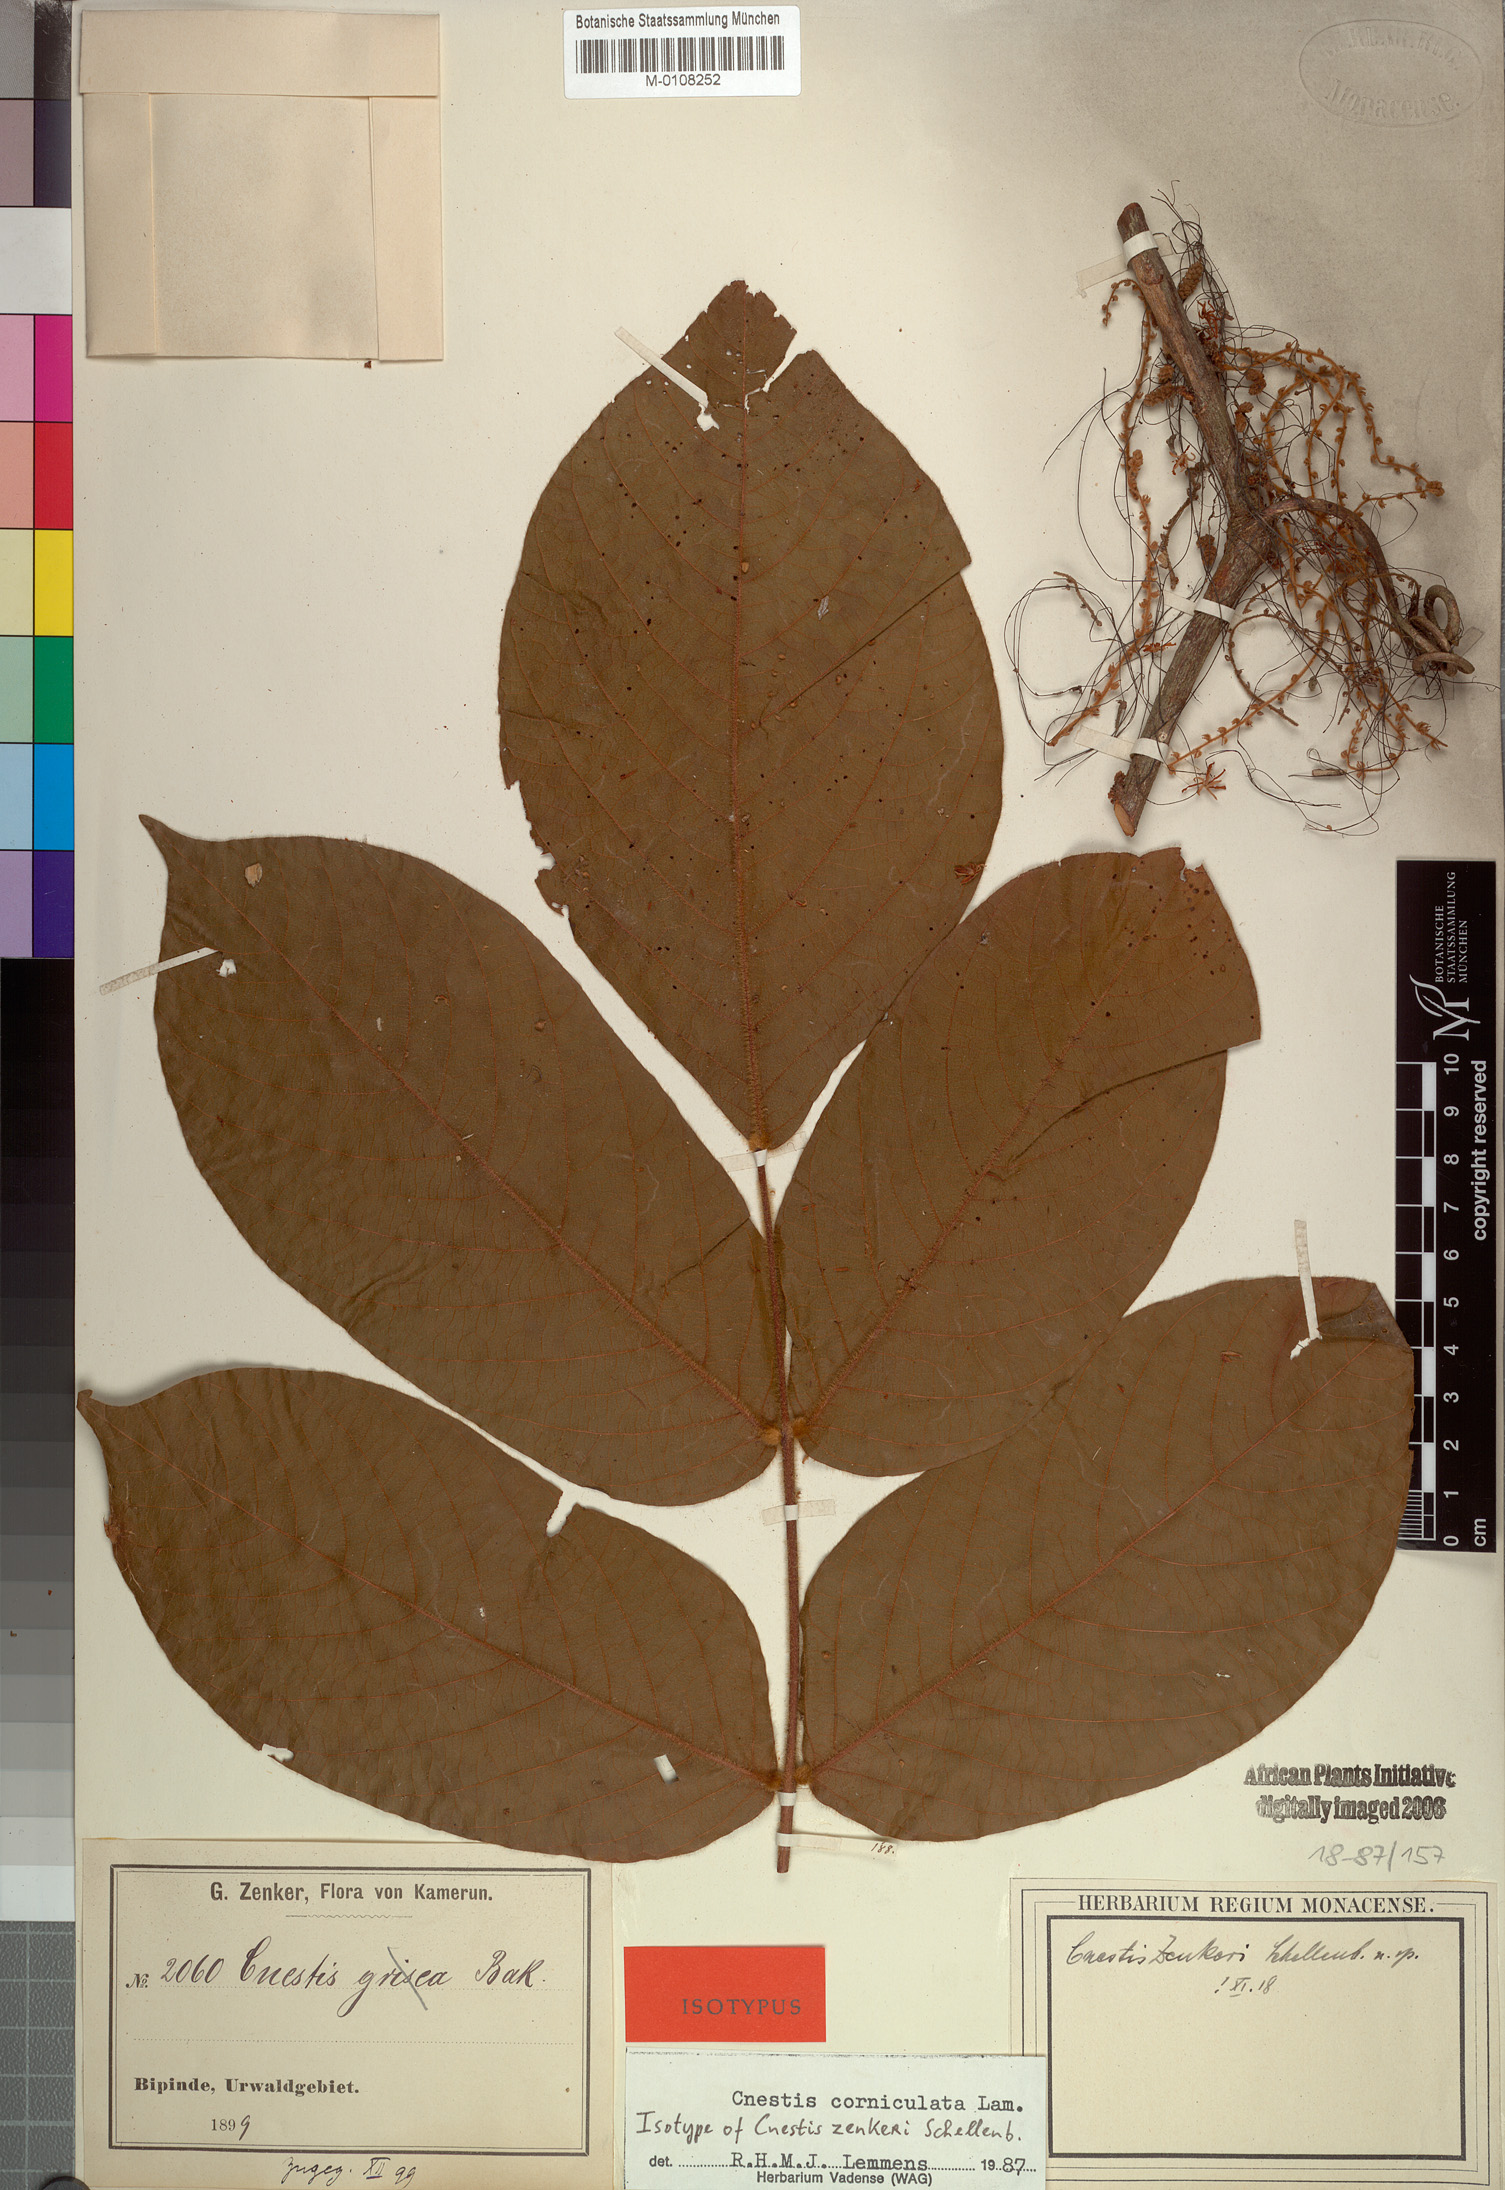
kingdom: Plantae
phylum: Tracheophyta
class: Magnoliopsida
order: Oxalidales
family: Connaraceae
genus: Cnestis
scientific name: Cnestis corniculata
